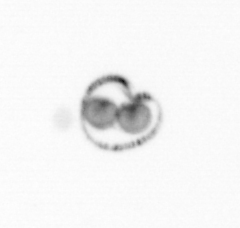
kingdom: Chromista
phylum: Myzozoa
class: Dinophyceae
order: Noctilucales
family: Noctilucaceae
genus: Noctiluca
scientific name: Noctiluca scintillans
